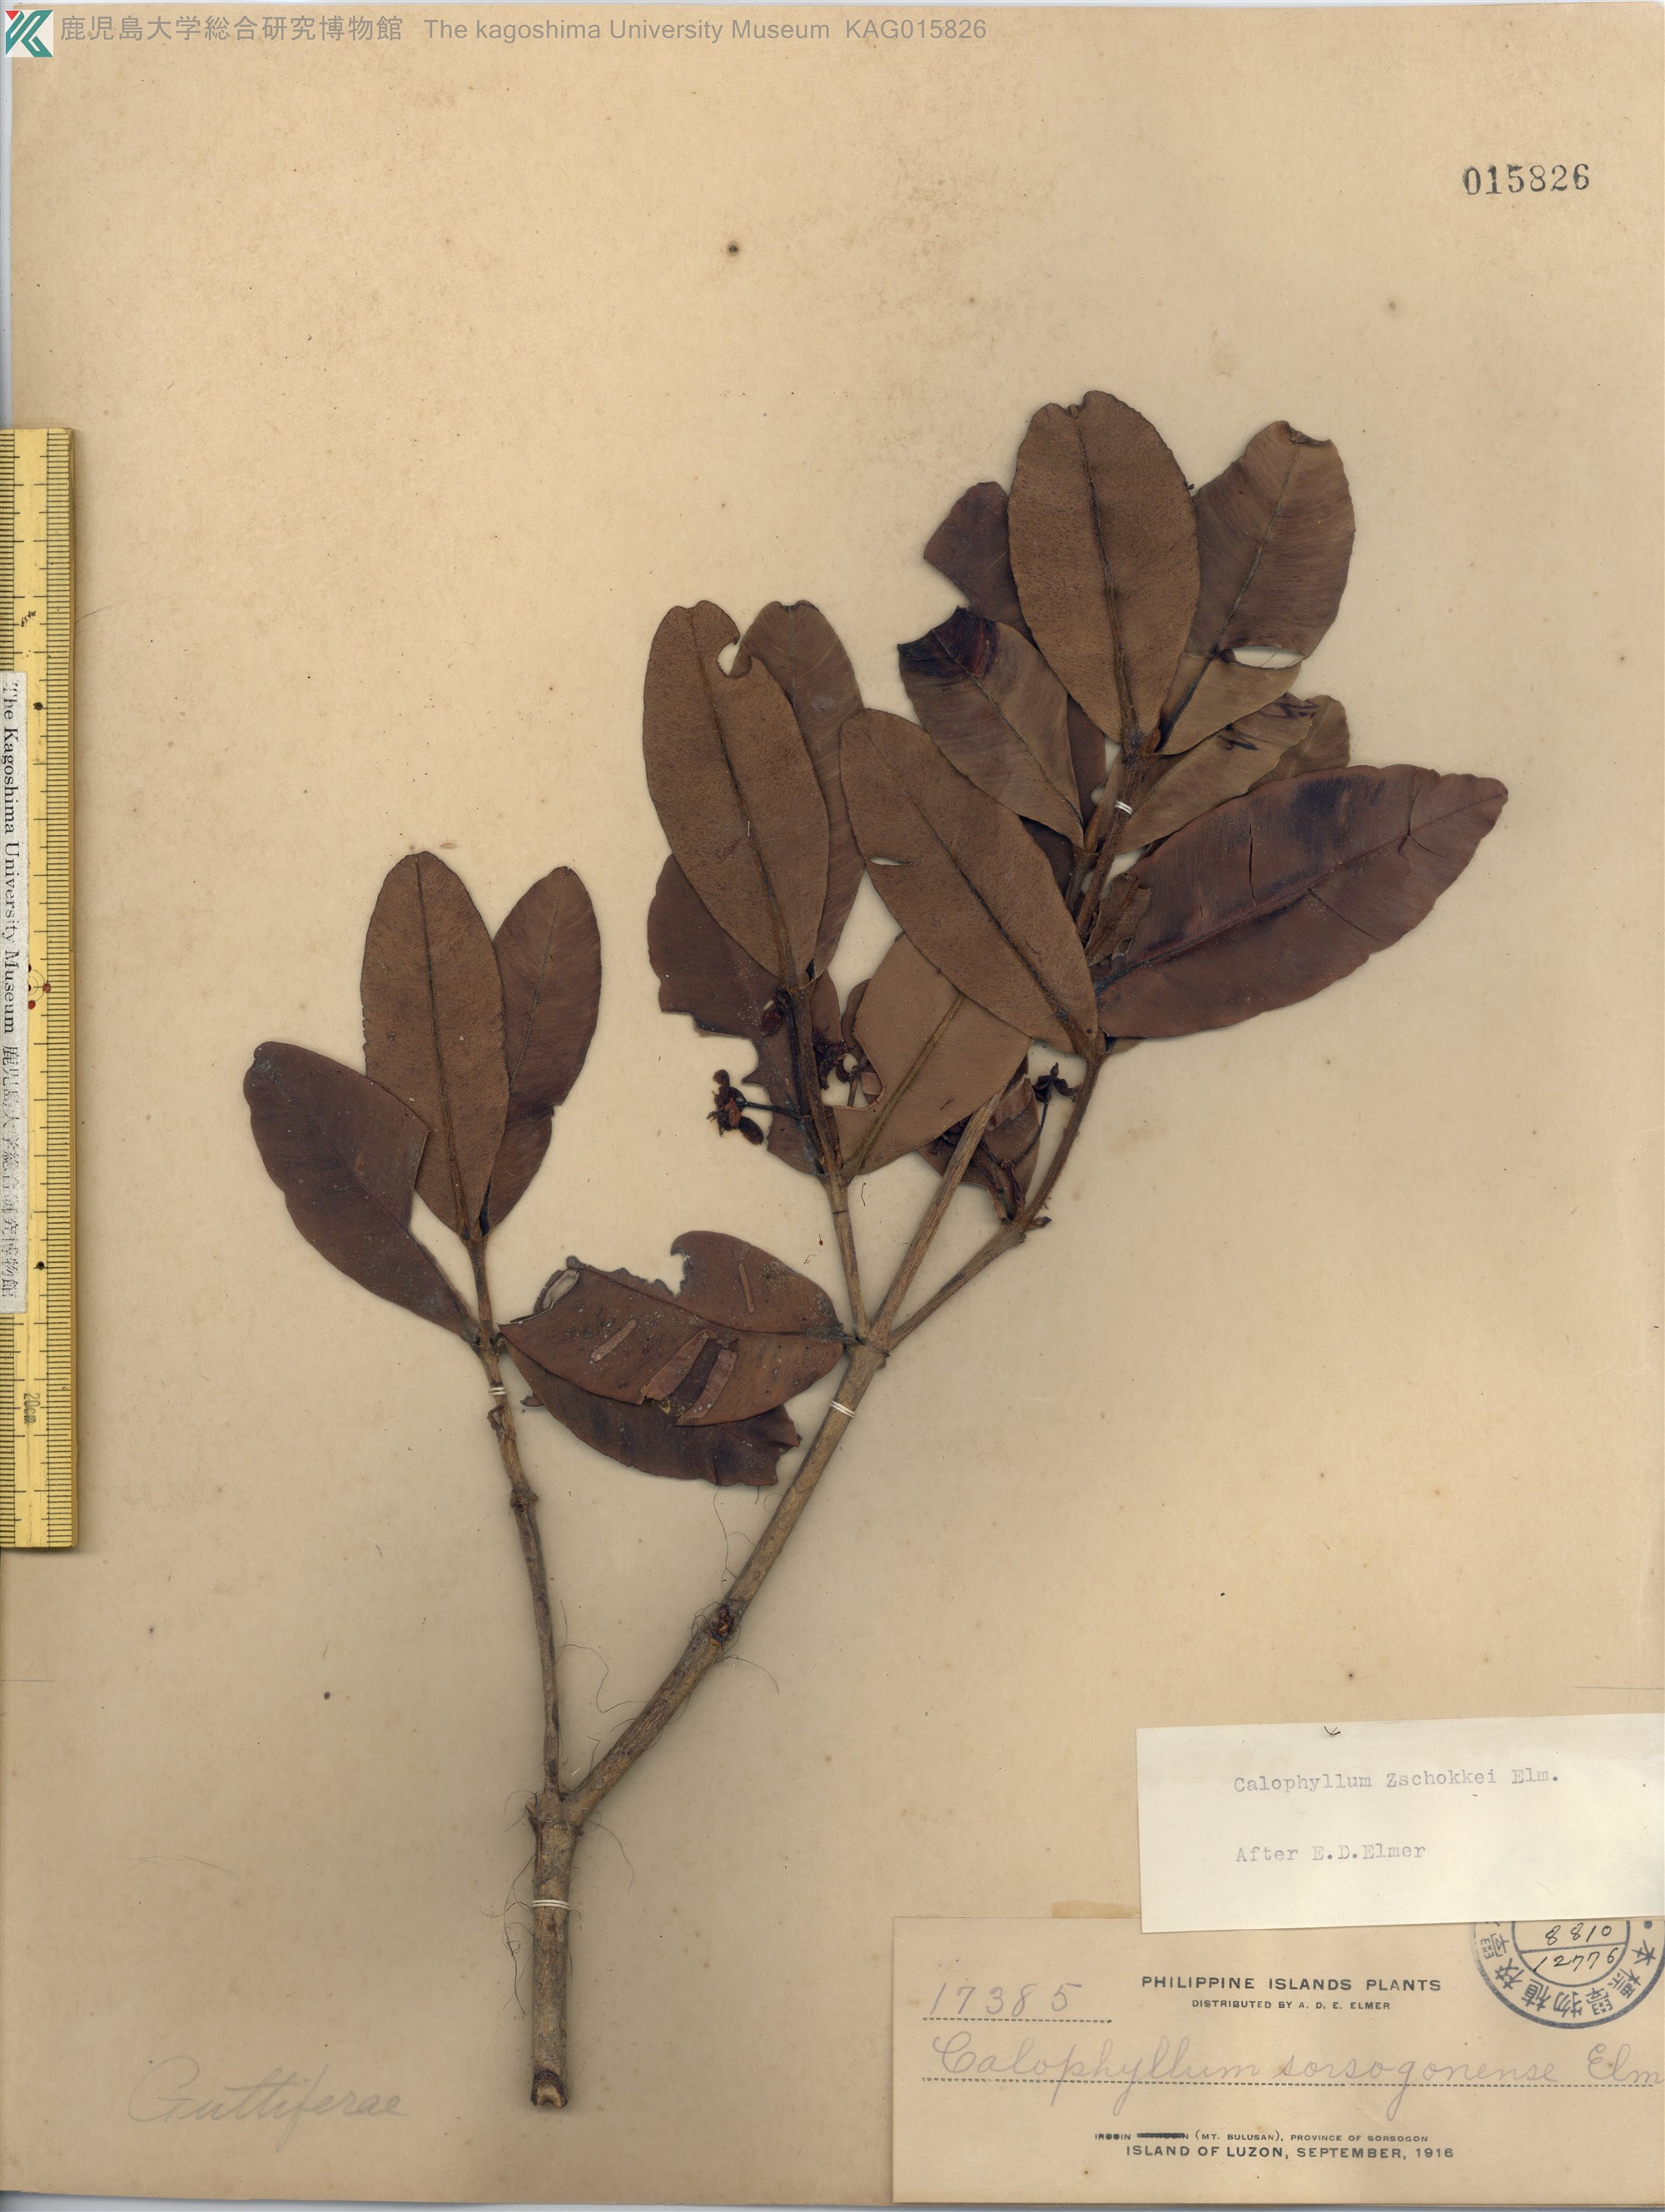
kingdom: Plantae
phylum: Tracheophyta
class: Magnoliopsida
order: Malpighiales
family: Calophyllaceae
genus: Calophyllum
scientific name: Calophyllum soulattri
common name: Bitangoor boonot
